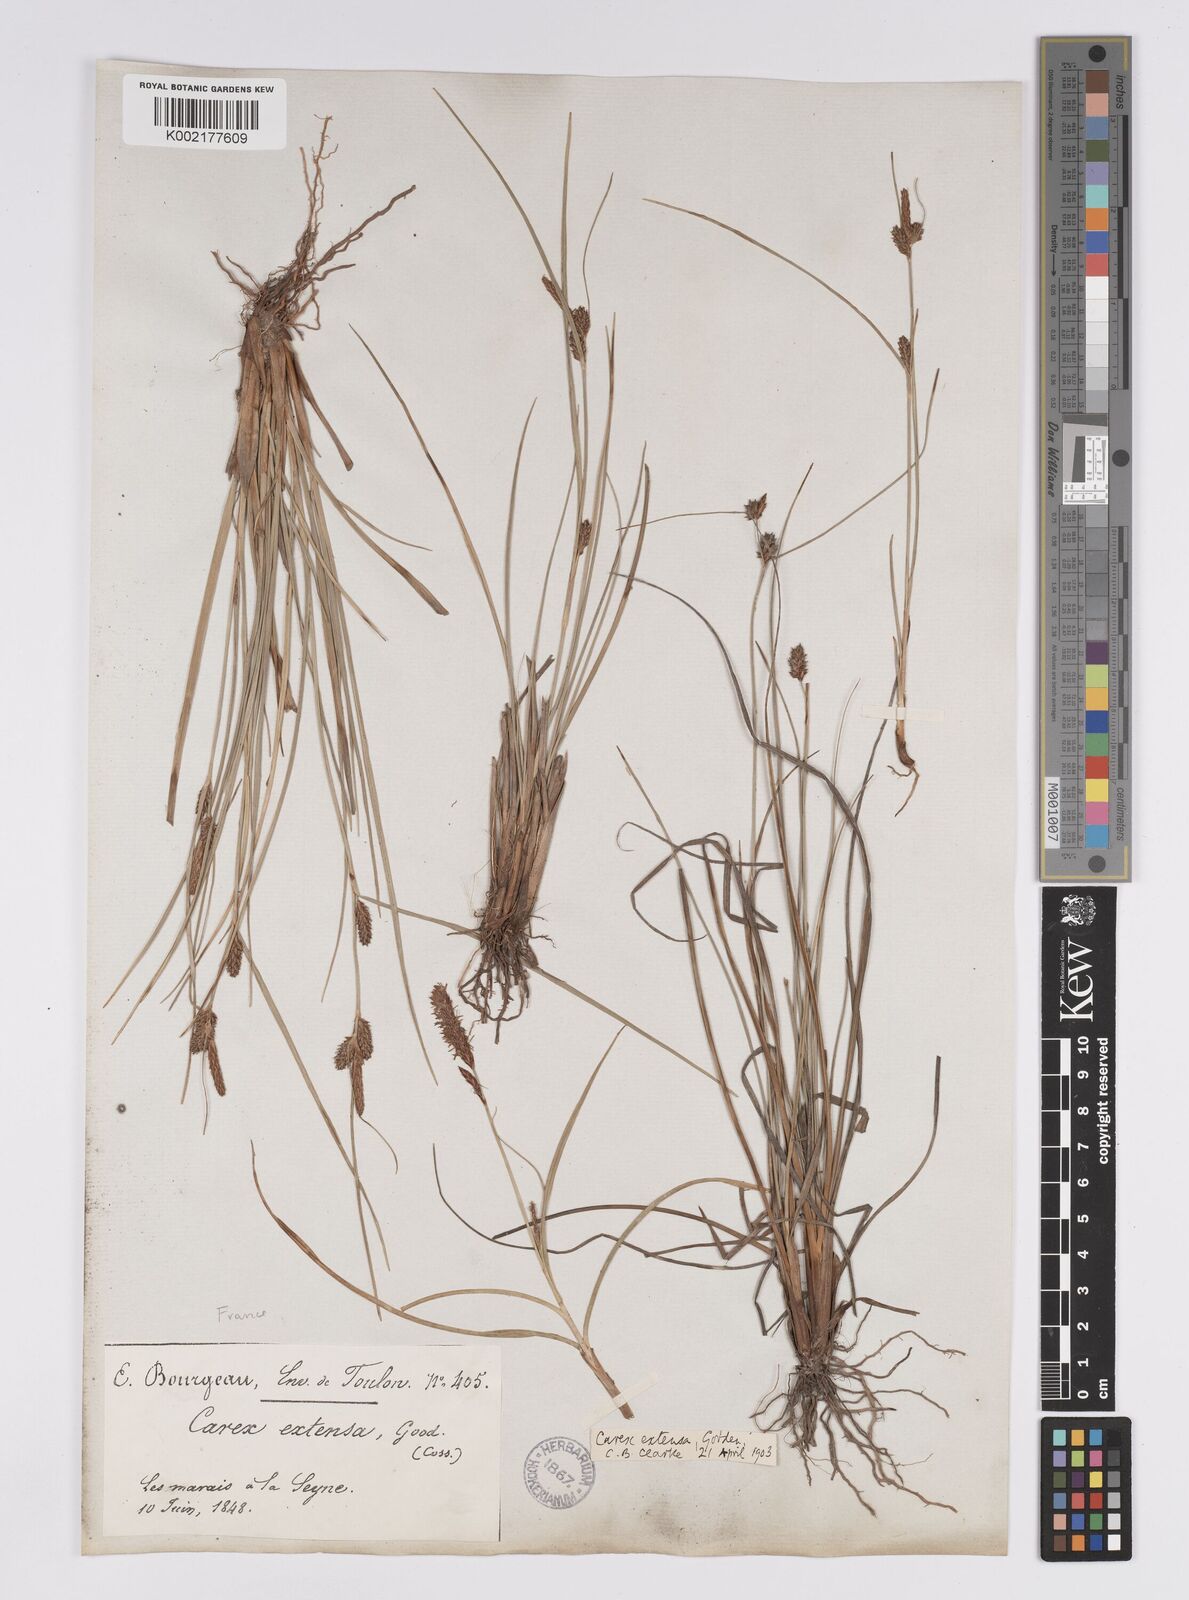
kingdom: Plantae
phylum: Tracheophyta
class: Liliopsida
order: Poales
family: Cyperaceae
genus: Carex
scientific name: Carex extensa
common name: Long-bracted sedge
